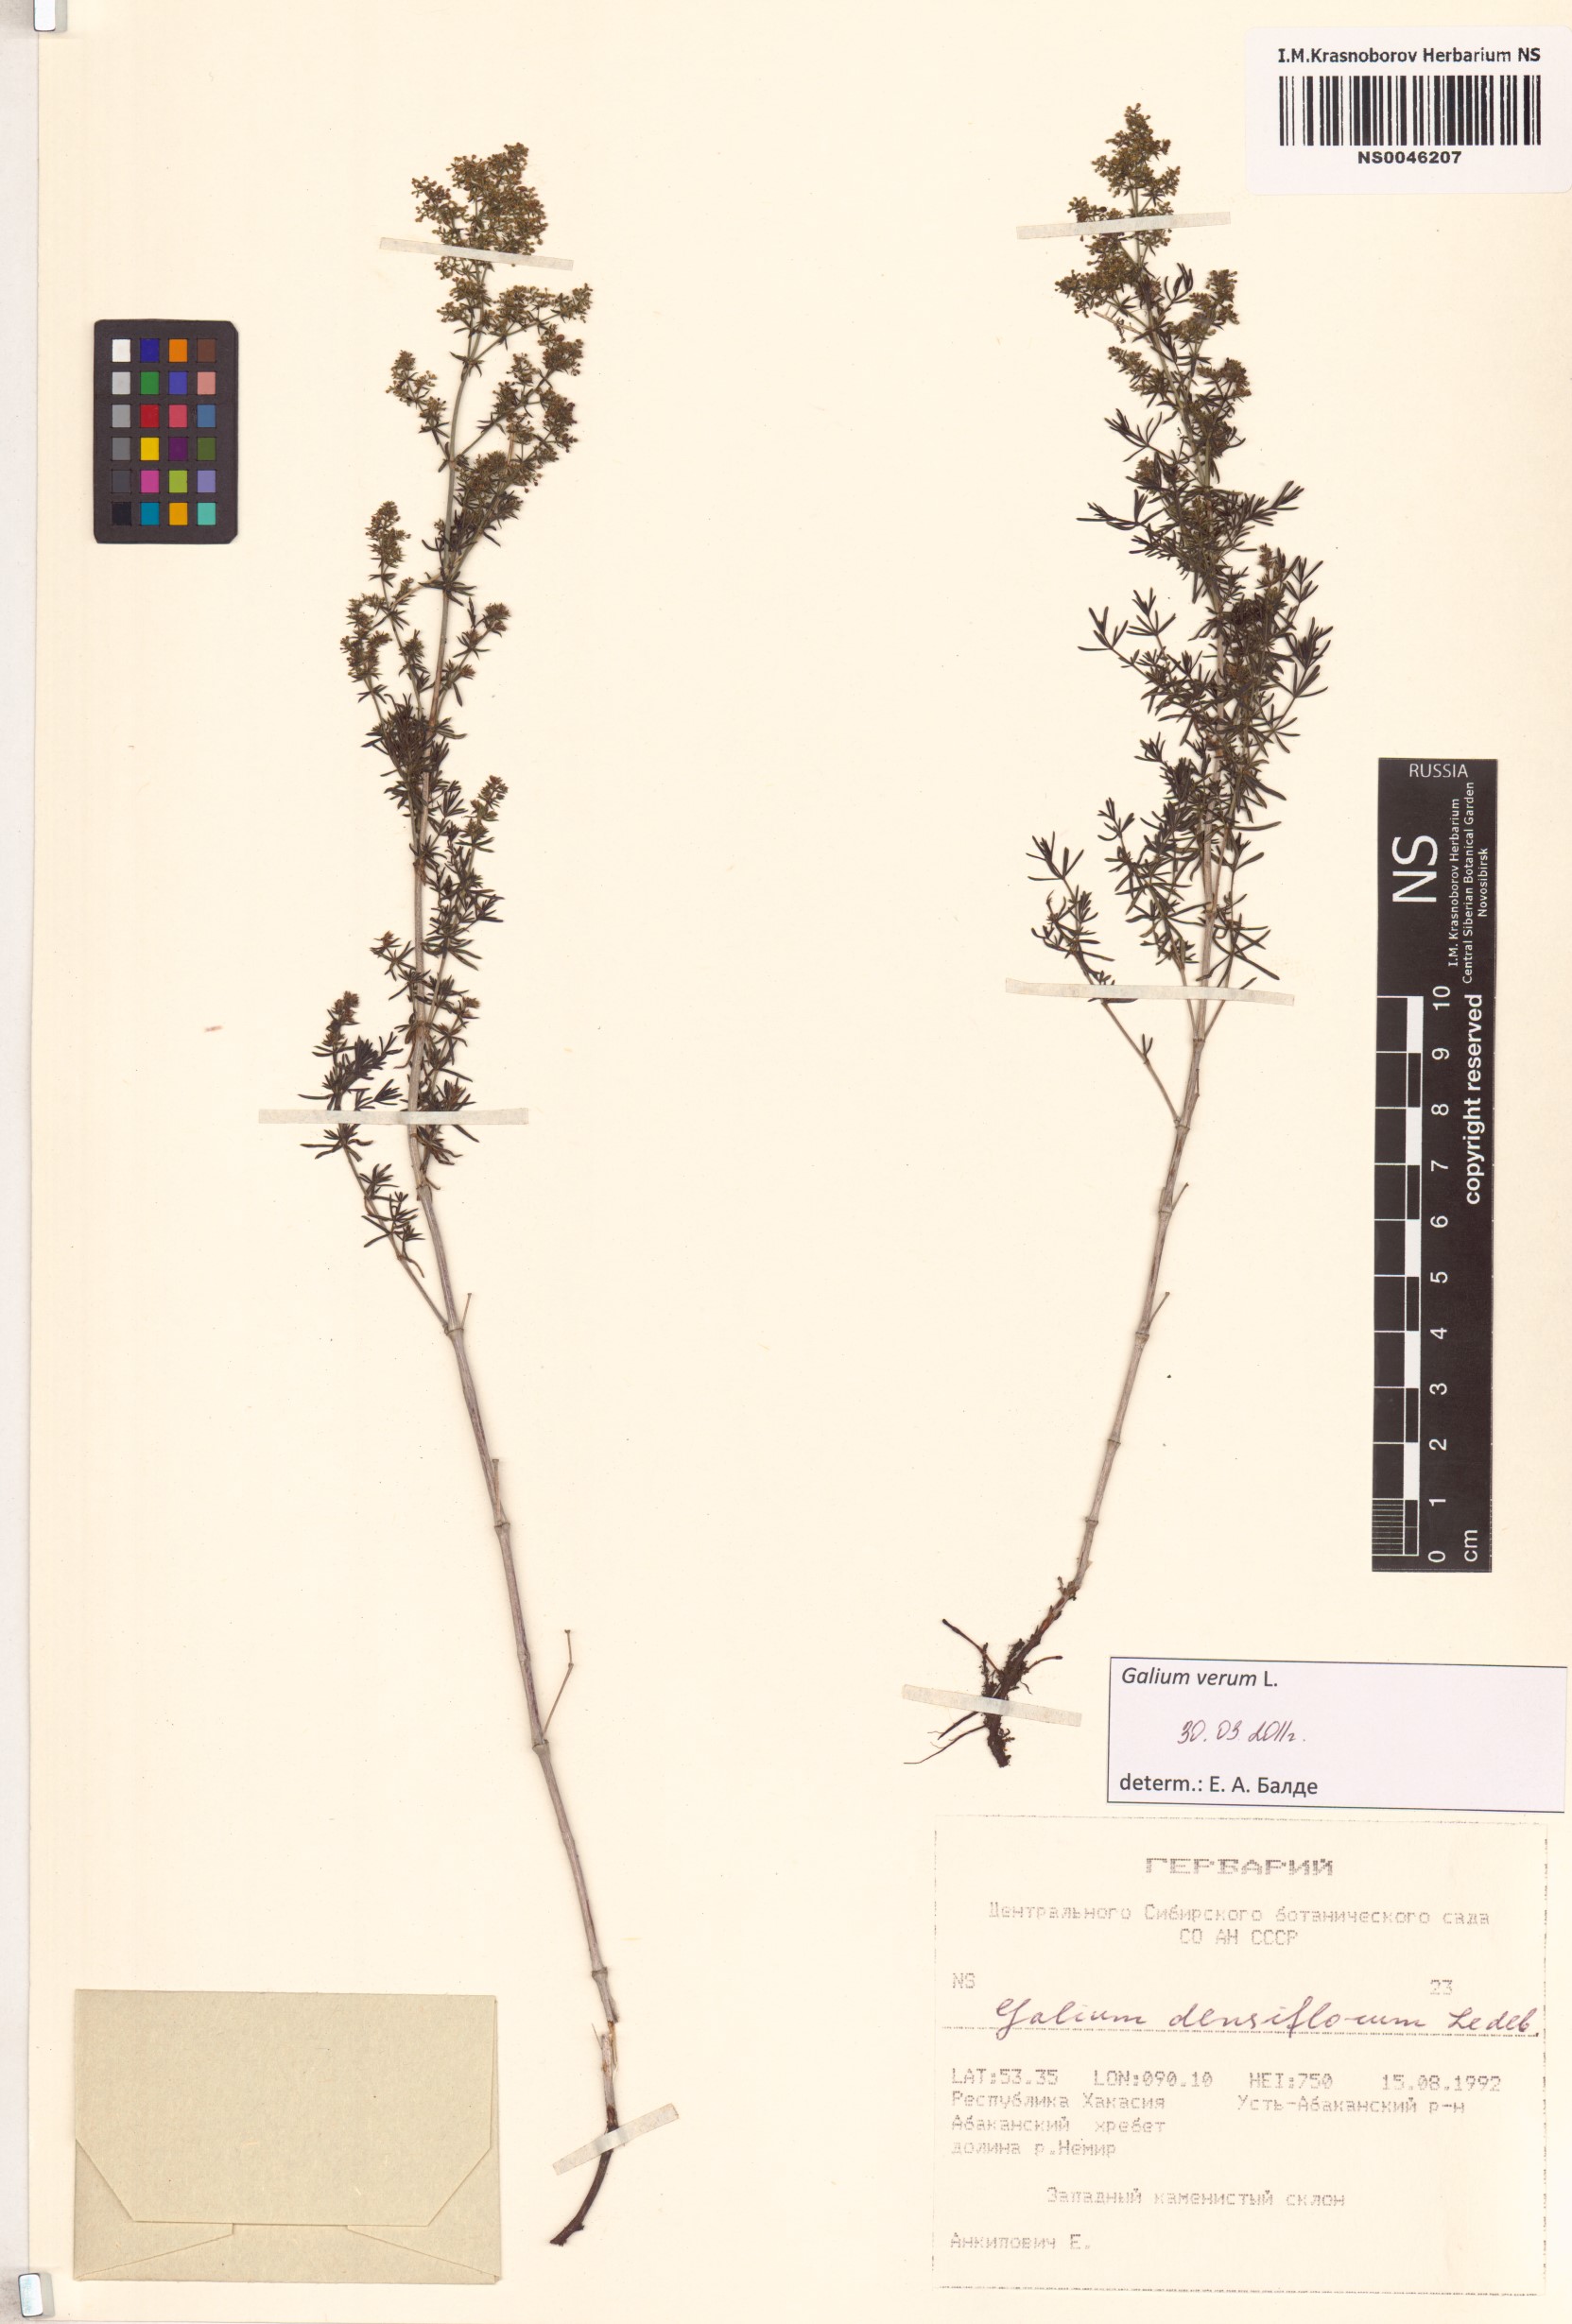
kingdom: Plantae
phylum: Tracheophyta
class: Magnoliopsida
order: Gentianales
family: Rubiaceae
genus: Galium
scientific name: Galium verum
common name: Lady's bedstraw
